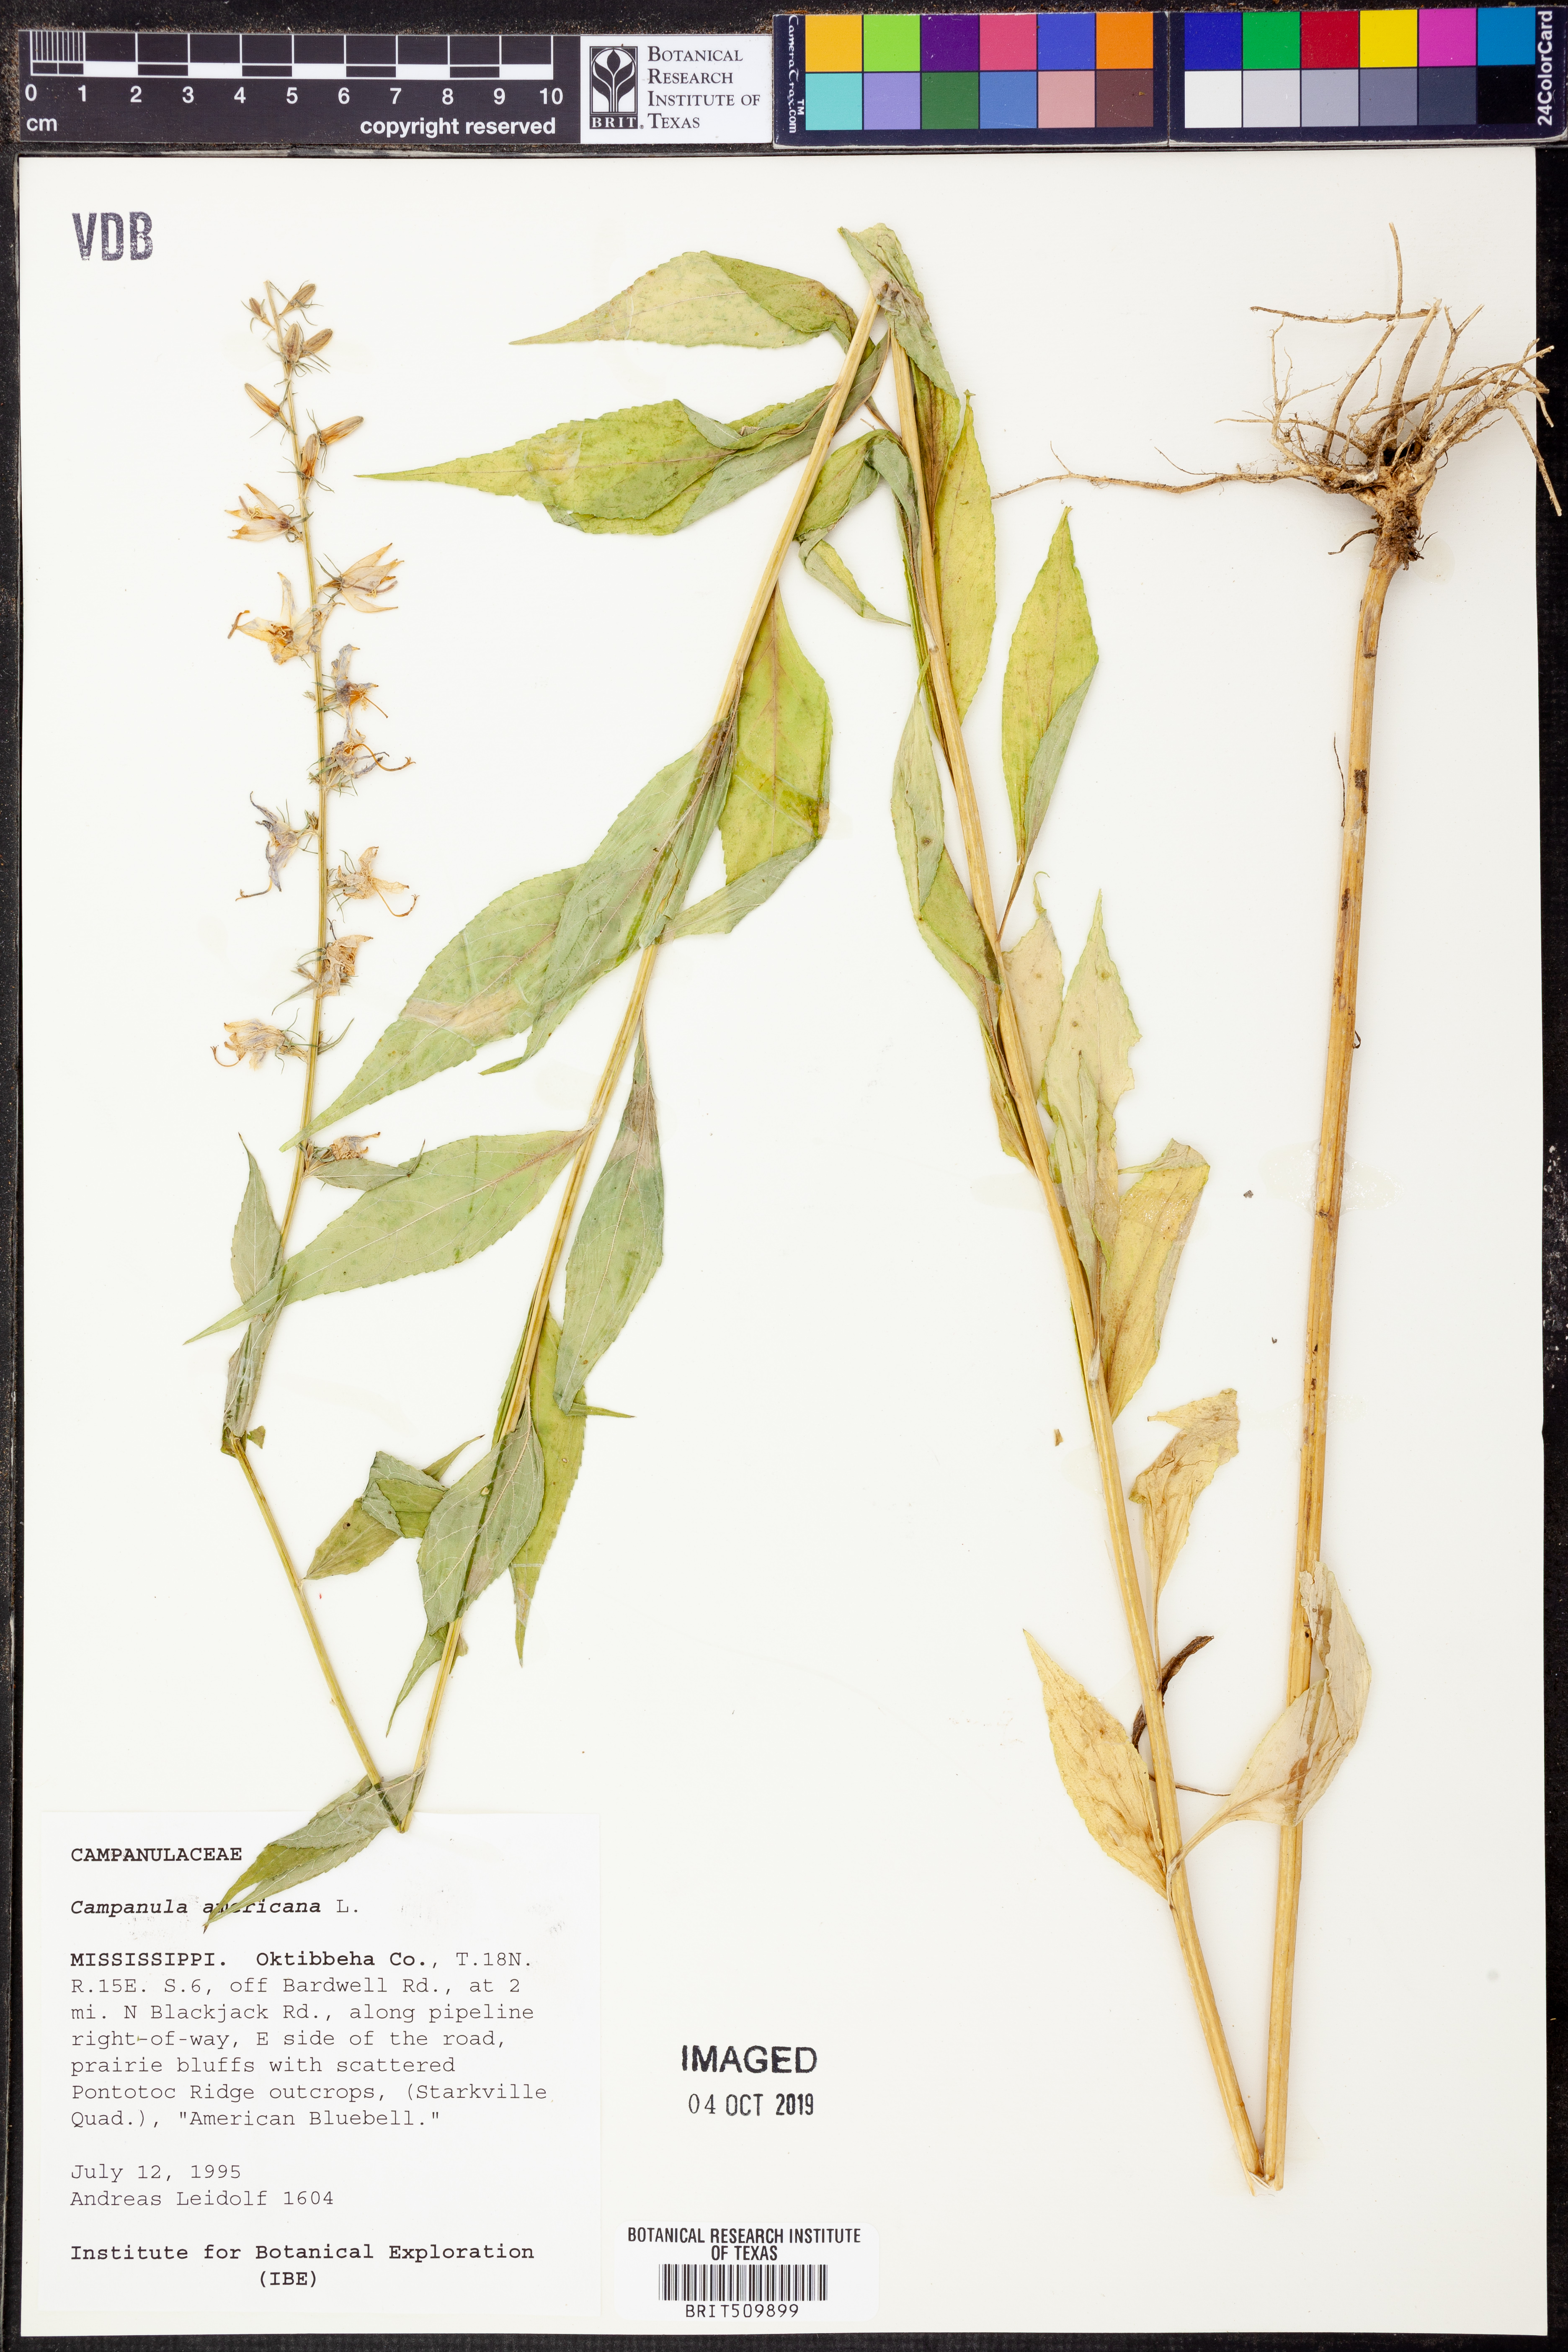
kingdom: Plantae
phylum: Tracheophyta
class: Magnoliopsida
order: Asterales
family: Campanulaceae
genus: Campanula
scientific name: Campanula americana
